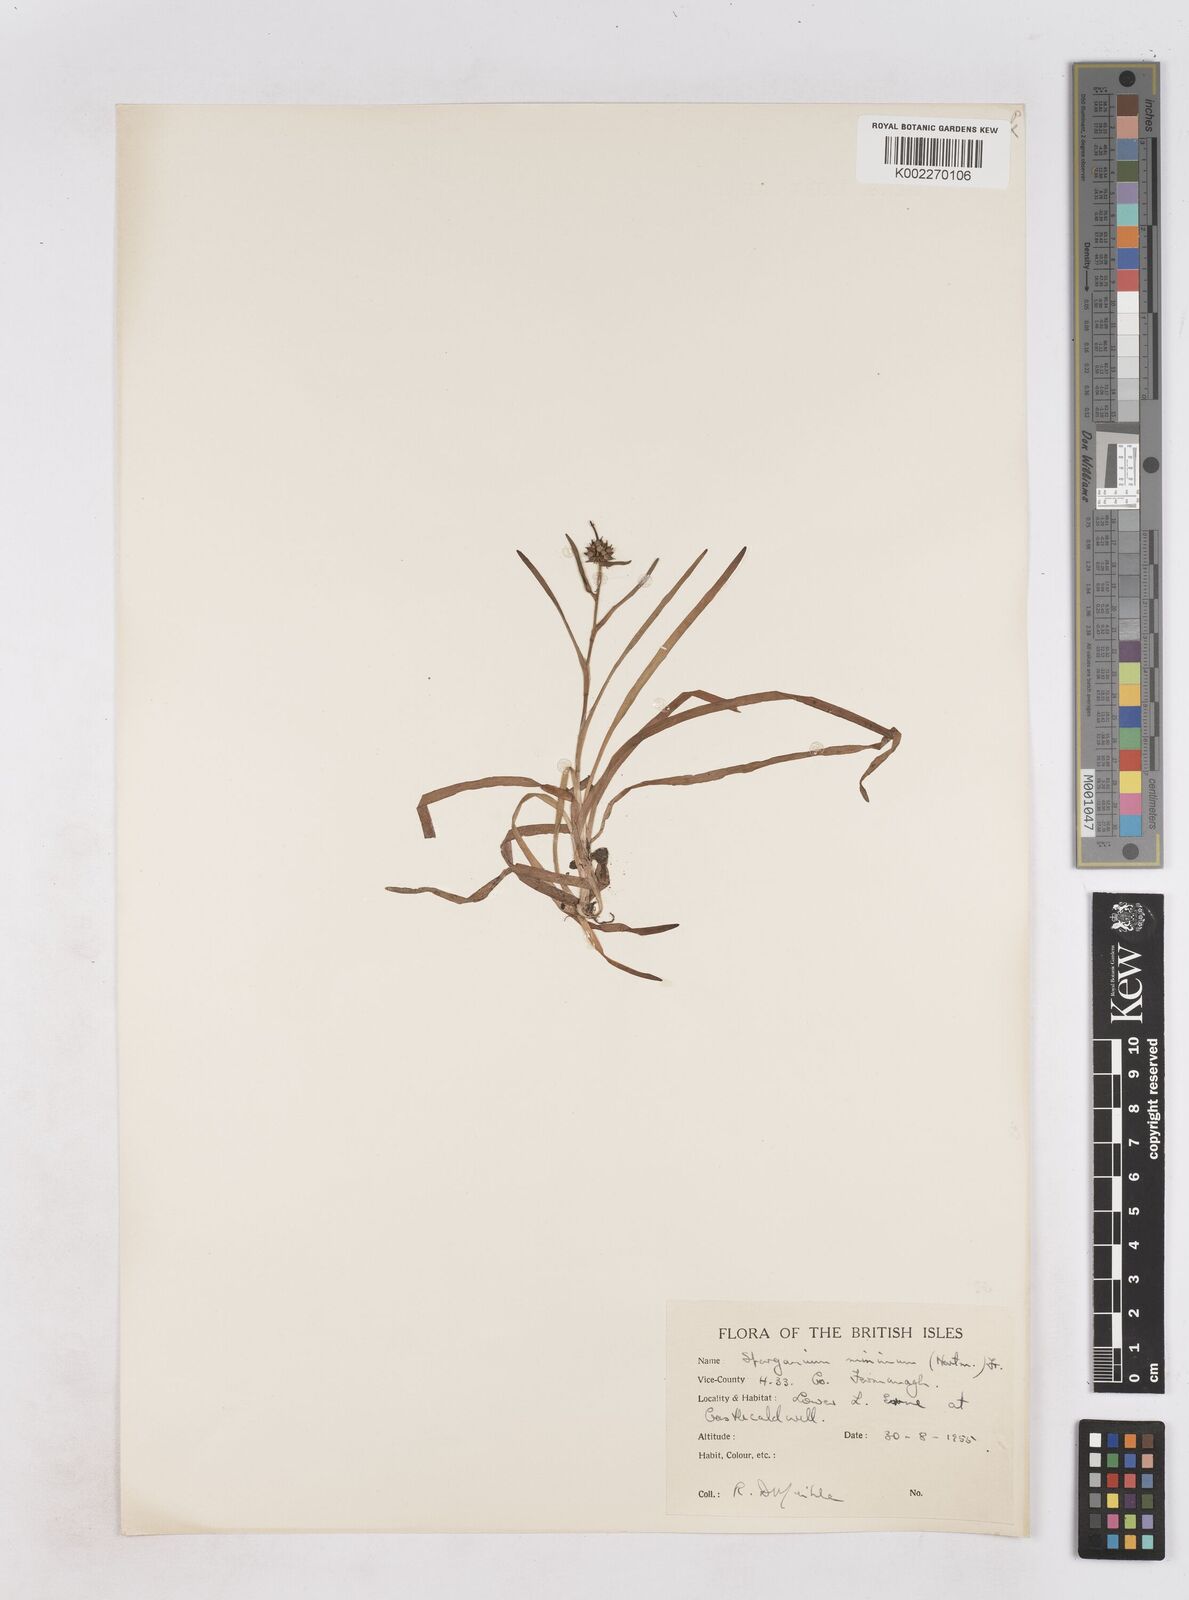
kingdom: Plantae
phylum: Tracheophyta
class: Liliopsida
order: Poales
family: Typhaceae
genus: Sparganium
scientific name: Sparganium natans
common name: Least bur-reed
